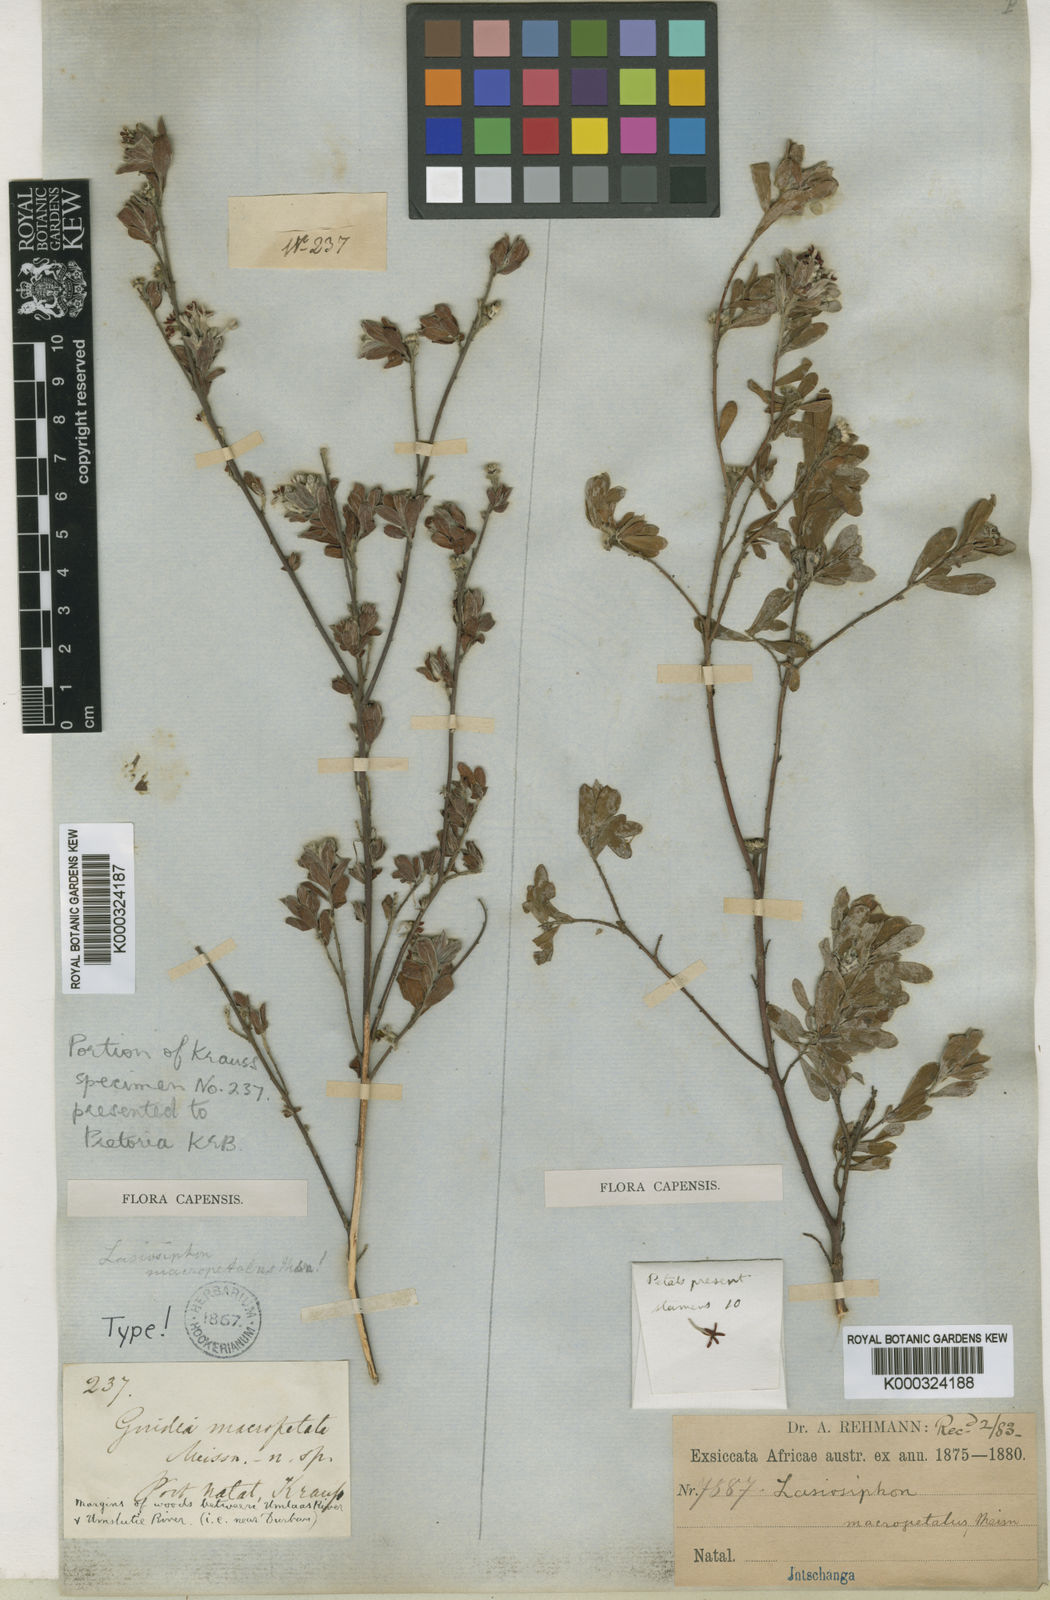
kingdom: Plantae
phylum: Tracheophyta
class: Magnoliopsida
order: Malvales
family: Thymelaeaceae
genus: Gnidia
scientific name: Gnidia macropetala
